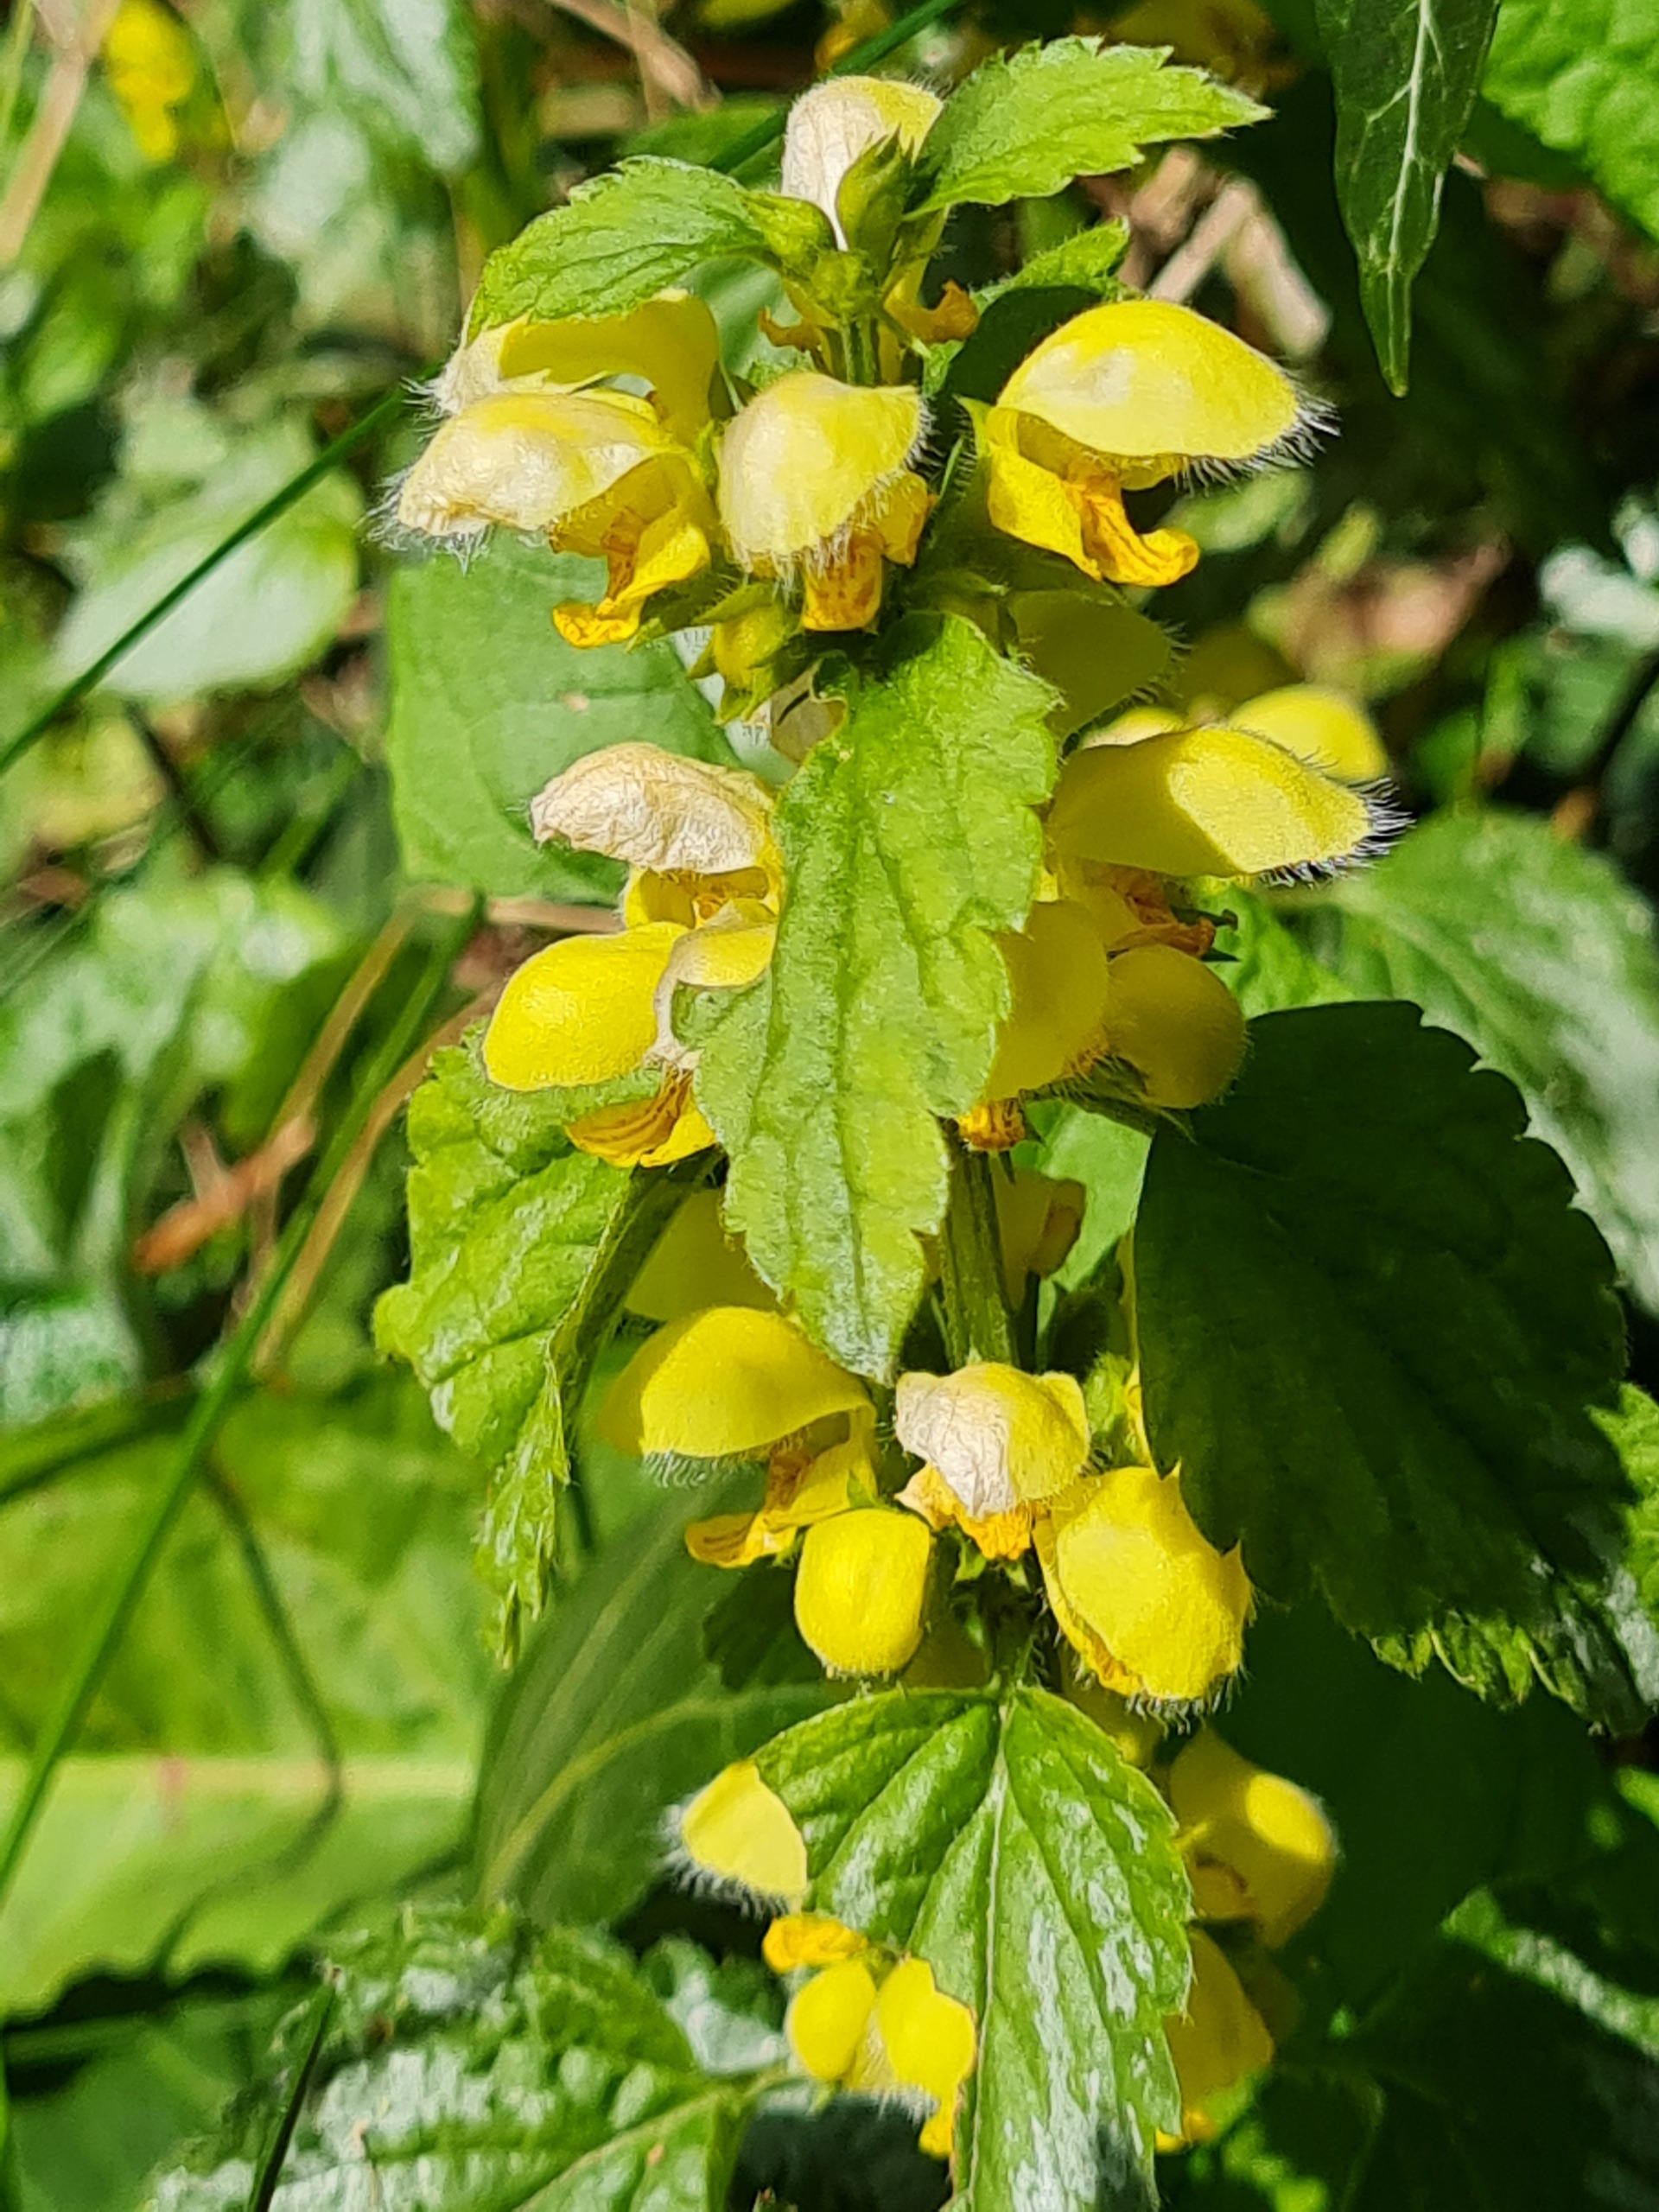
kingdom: Plantae
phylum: Tracheophyta
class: Magnoliopsida
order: Lamiales
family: Lamiaceae
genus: Lamium
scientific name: Lamium galeobdolon
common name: Have-guldnælde
